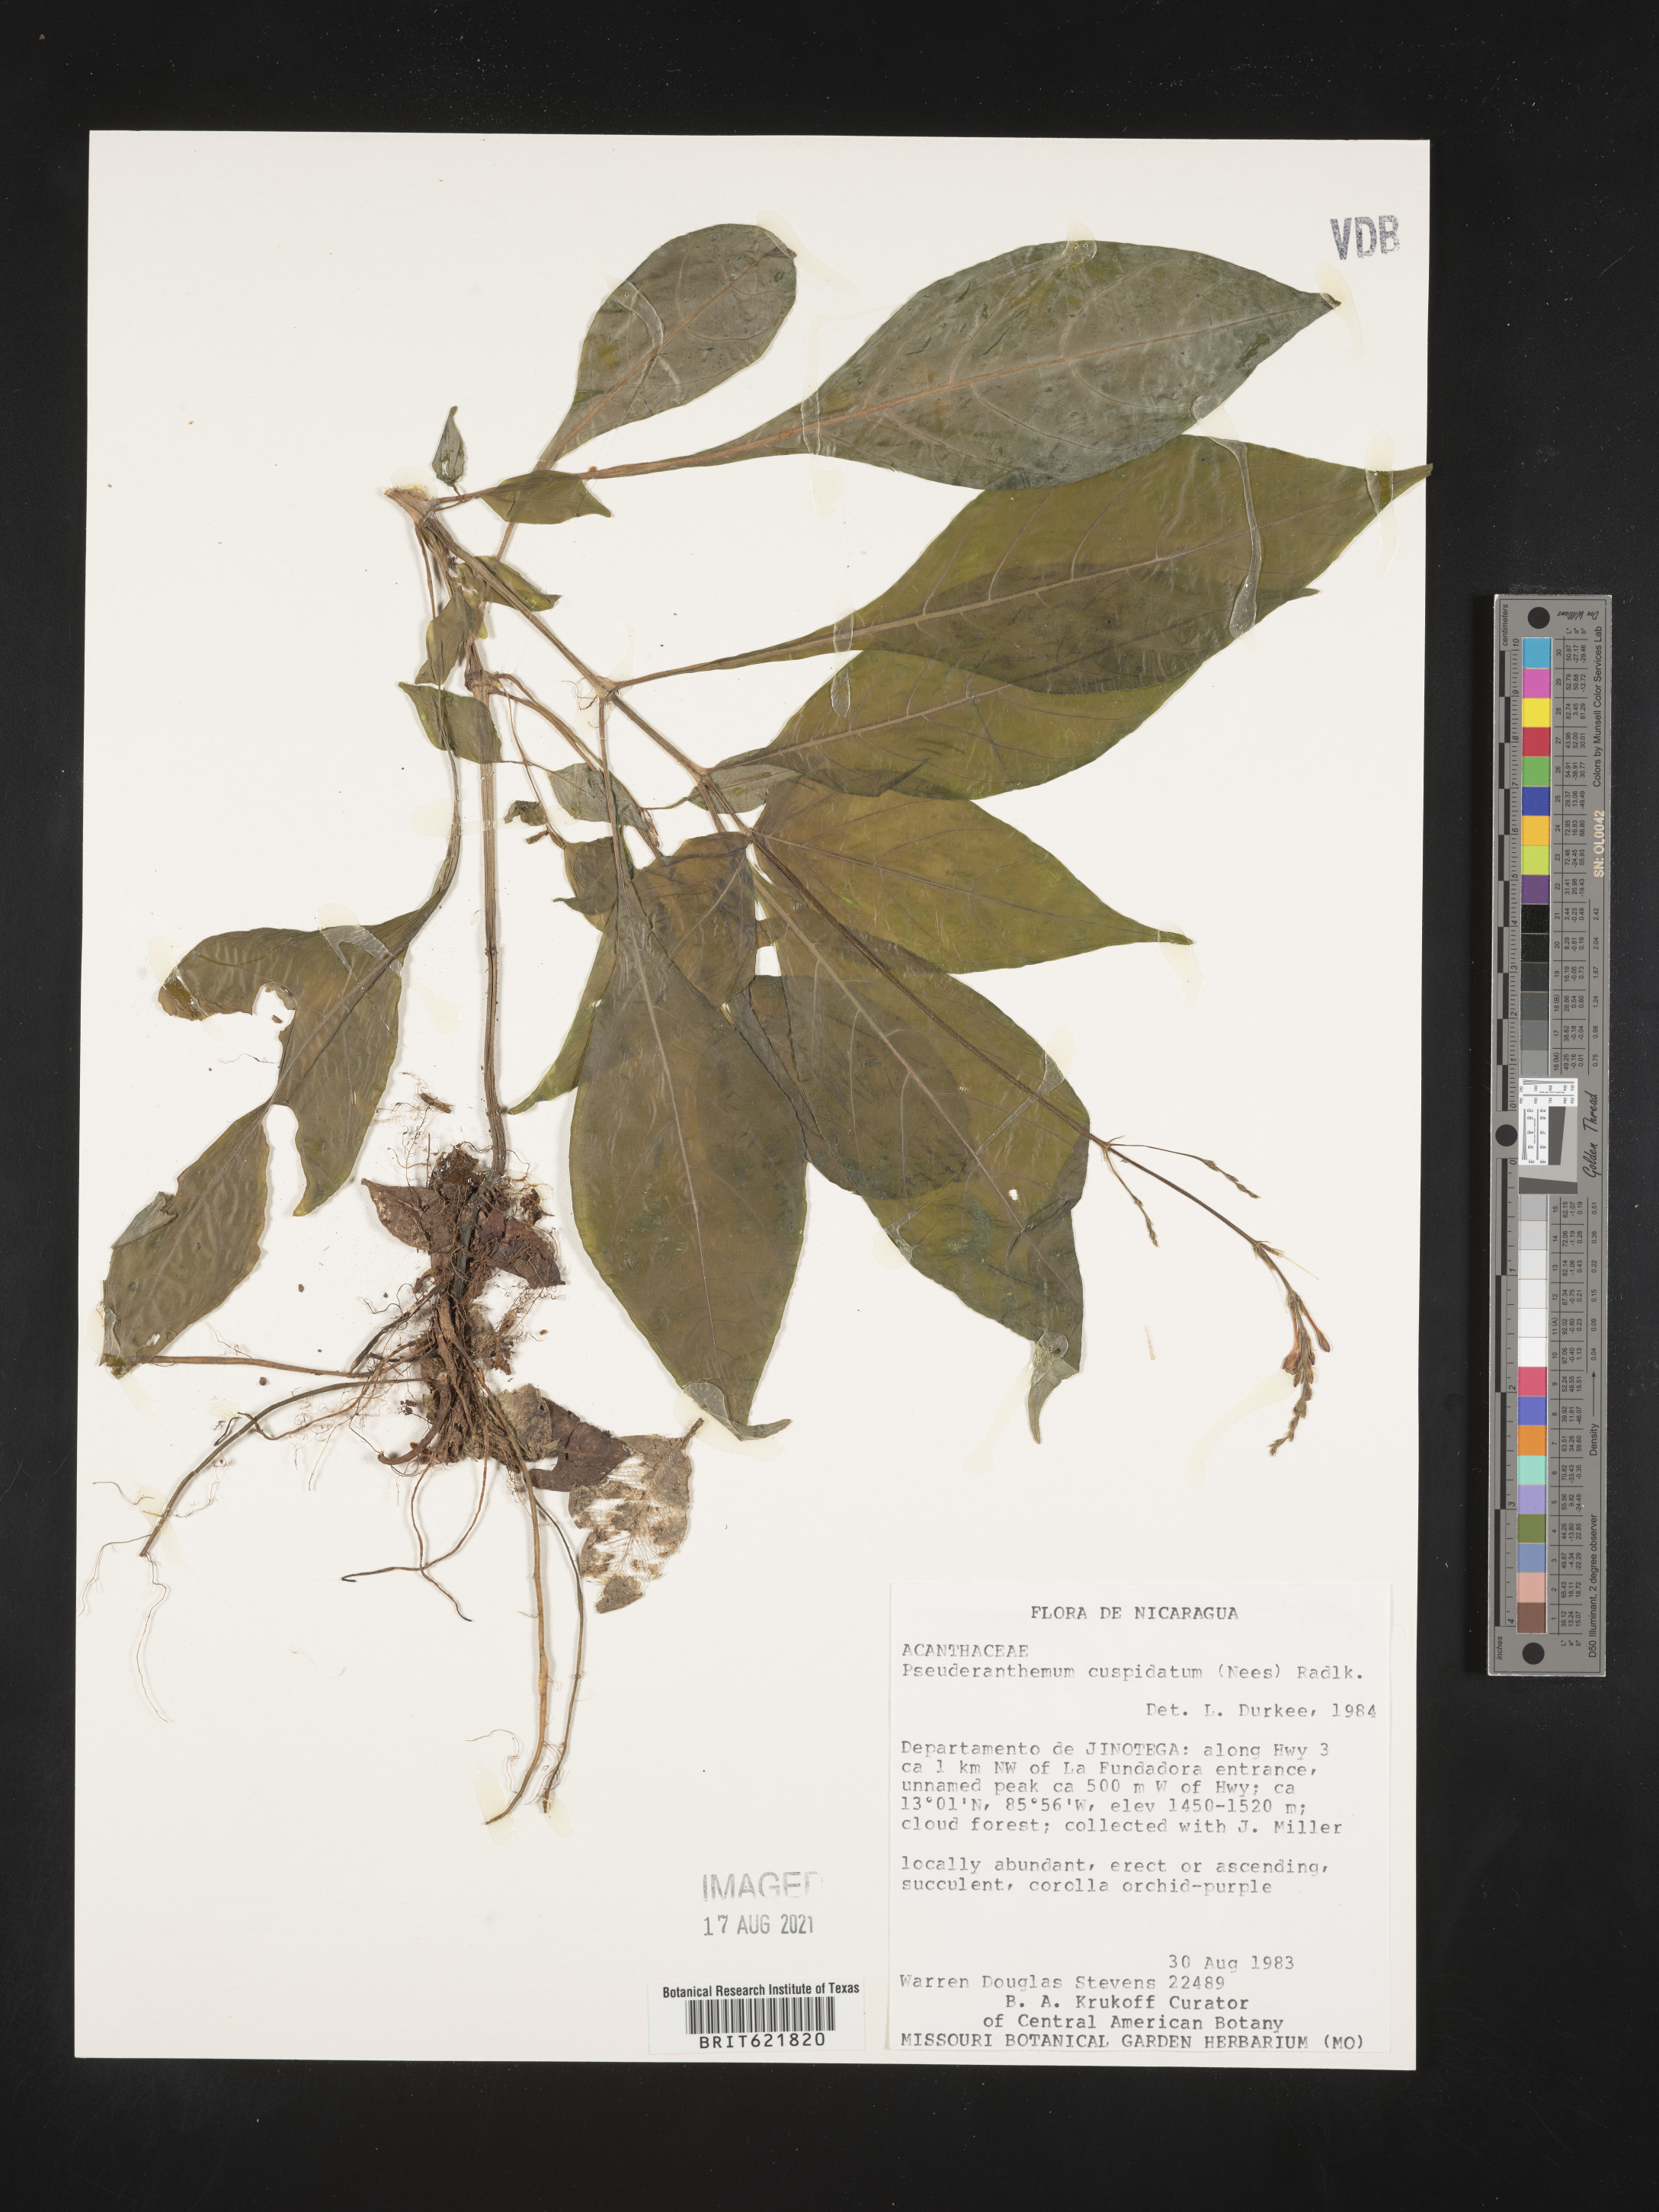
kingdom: Plantae
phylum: Tracheophyta
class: Magnoliopsida
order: Lamiales
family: Acanthaceae
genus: Pseuderanthemum
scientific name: Pseuderanthemum cuspidatum
